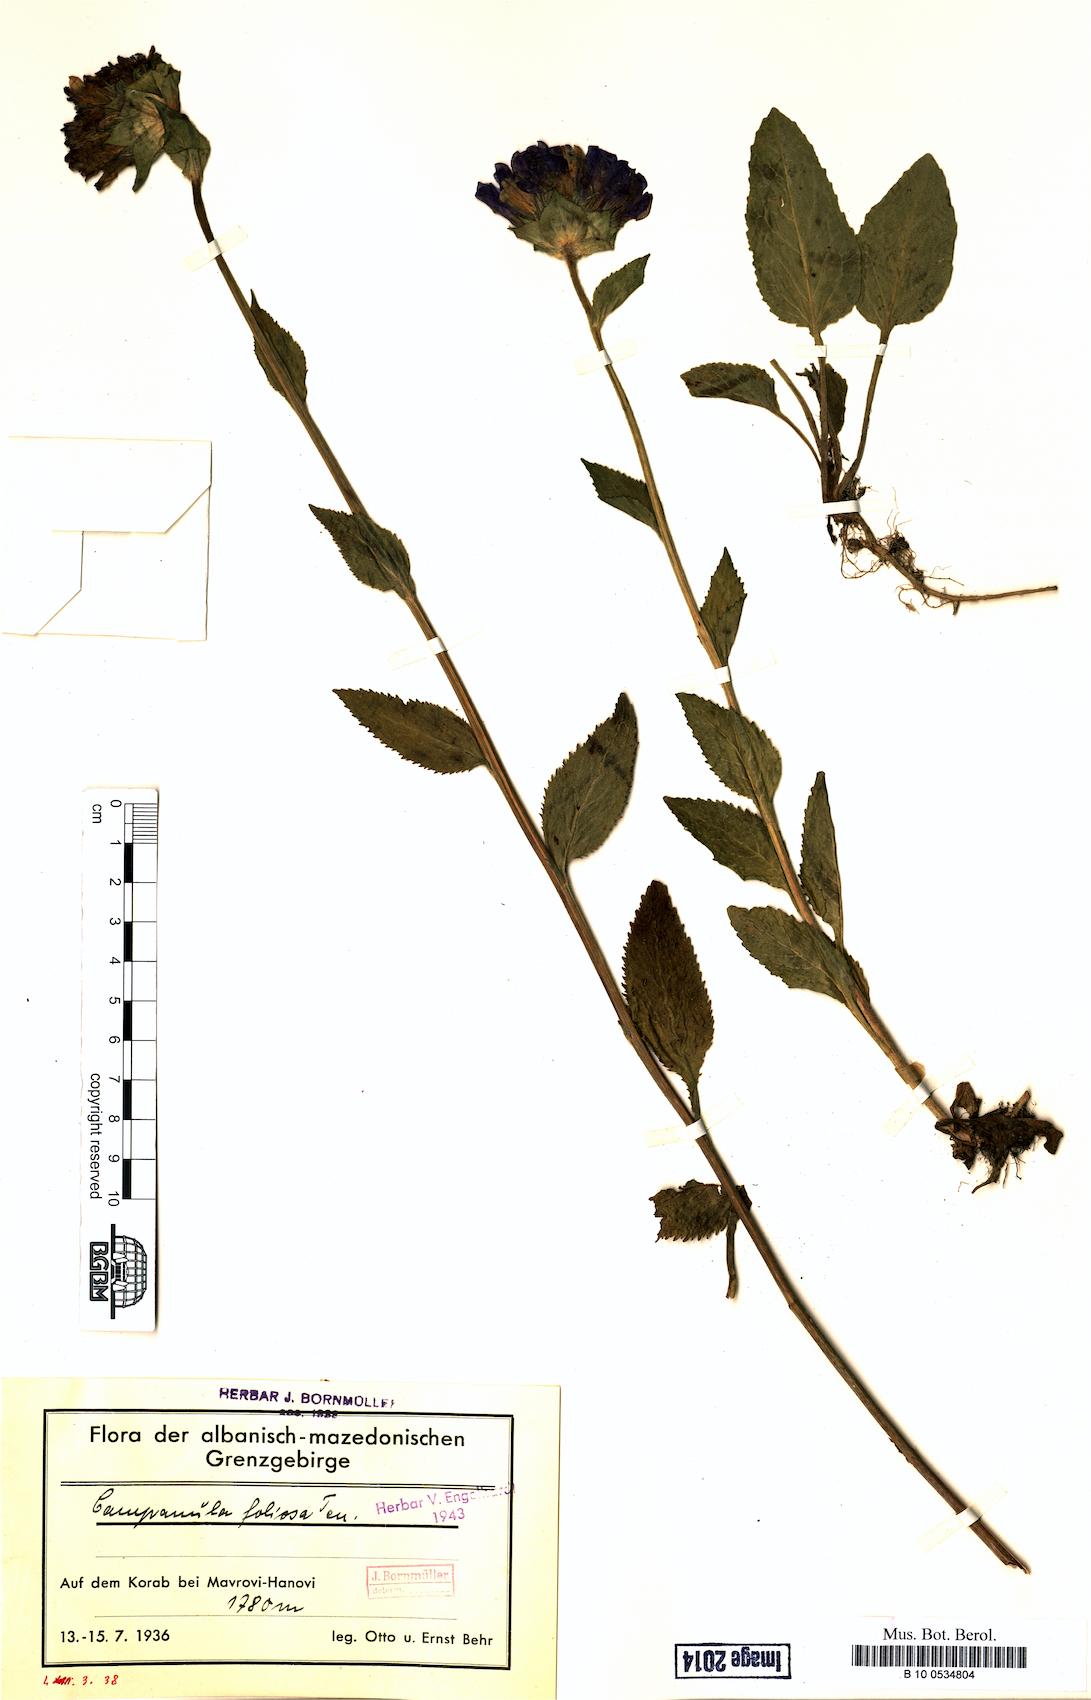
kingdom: Plantae
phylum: Tracheophyta
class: Magnoliopsida
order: Asterales
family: Campanulaceae
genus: Campanula
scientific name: Campanula foliosa
